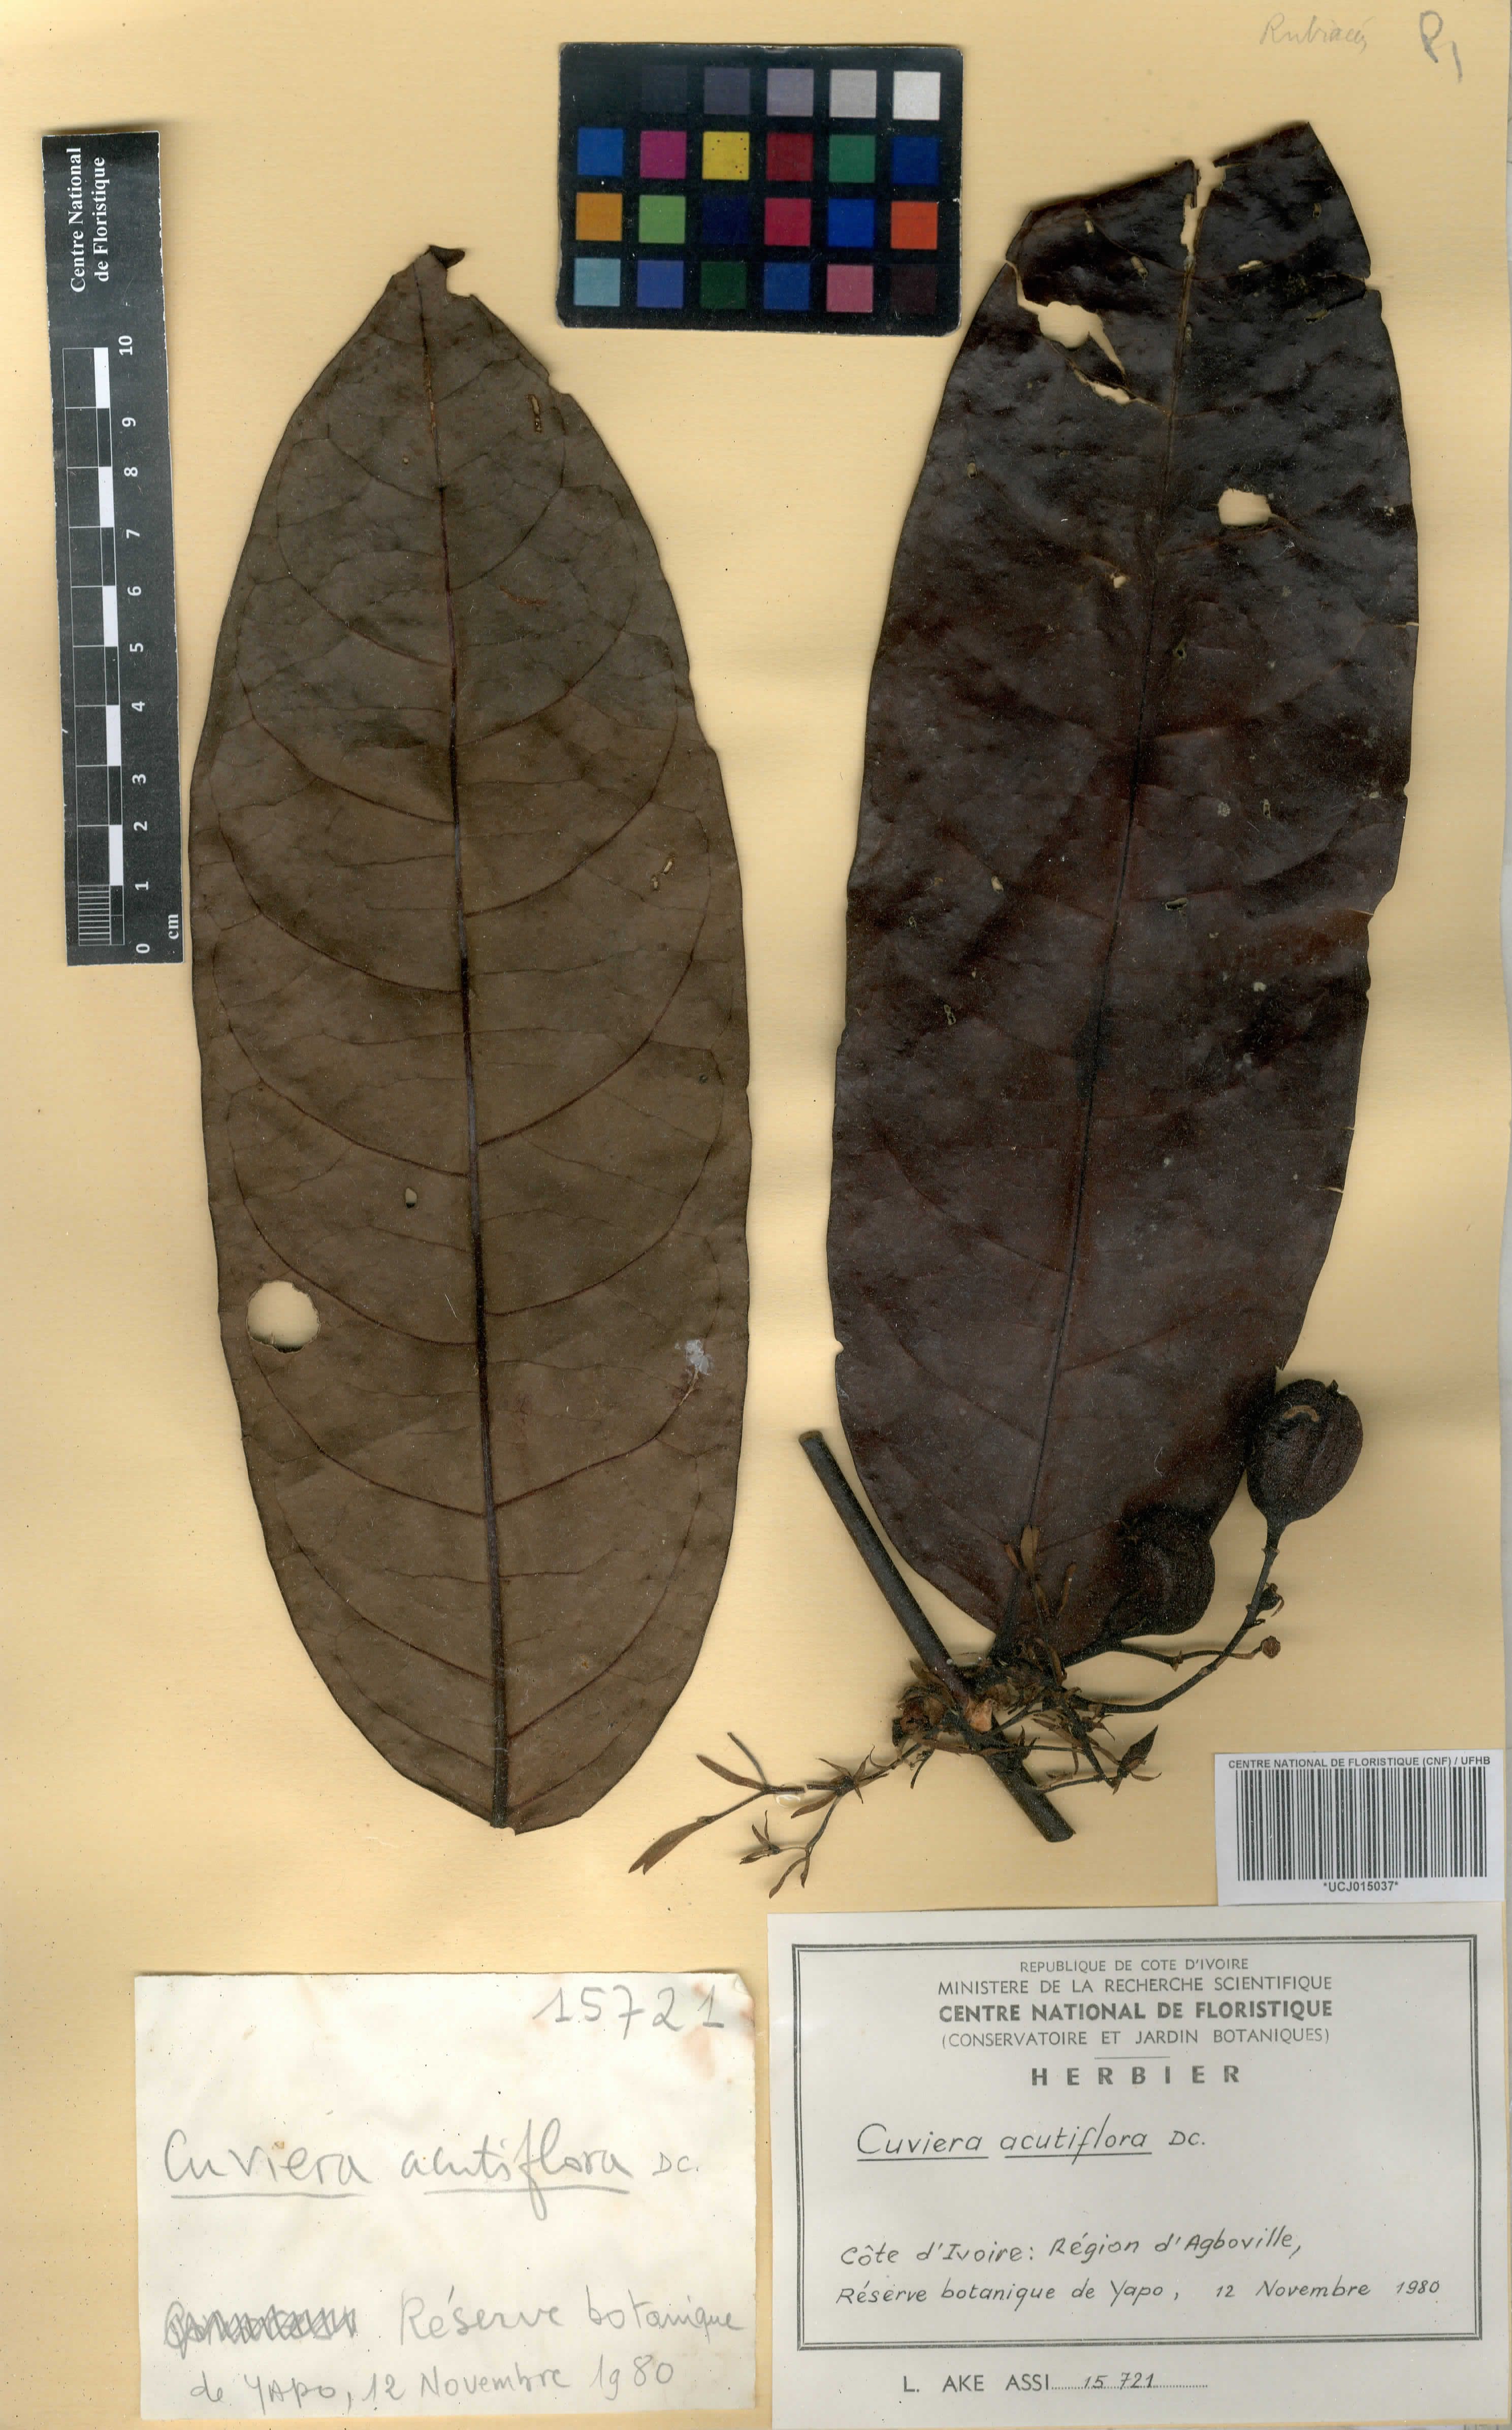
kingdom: Plantae
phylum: Tracheophyta
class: Magnoliopsida
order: Gentianales
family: Rubiaceae
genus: Cuviera
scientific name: Cuviera acutiflora
